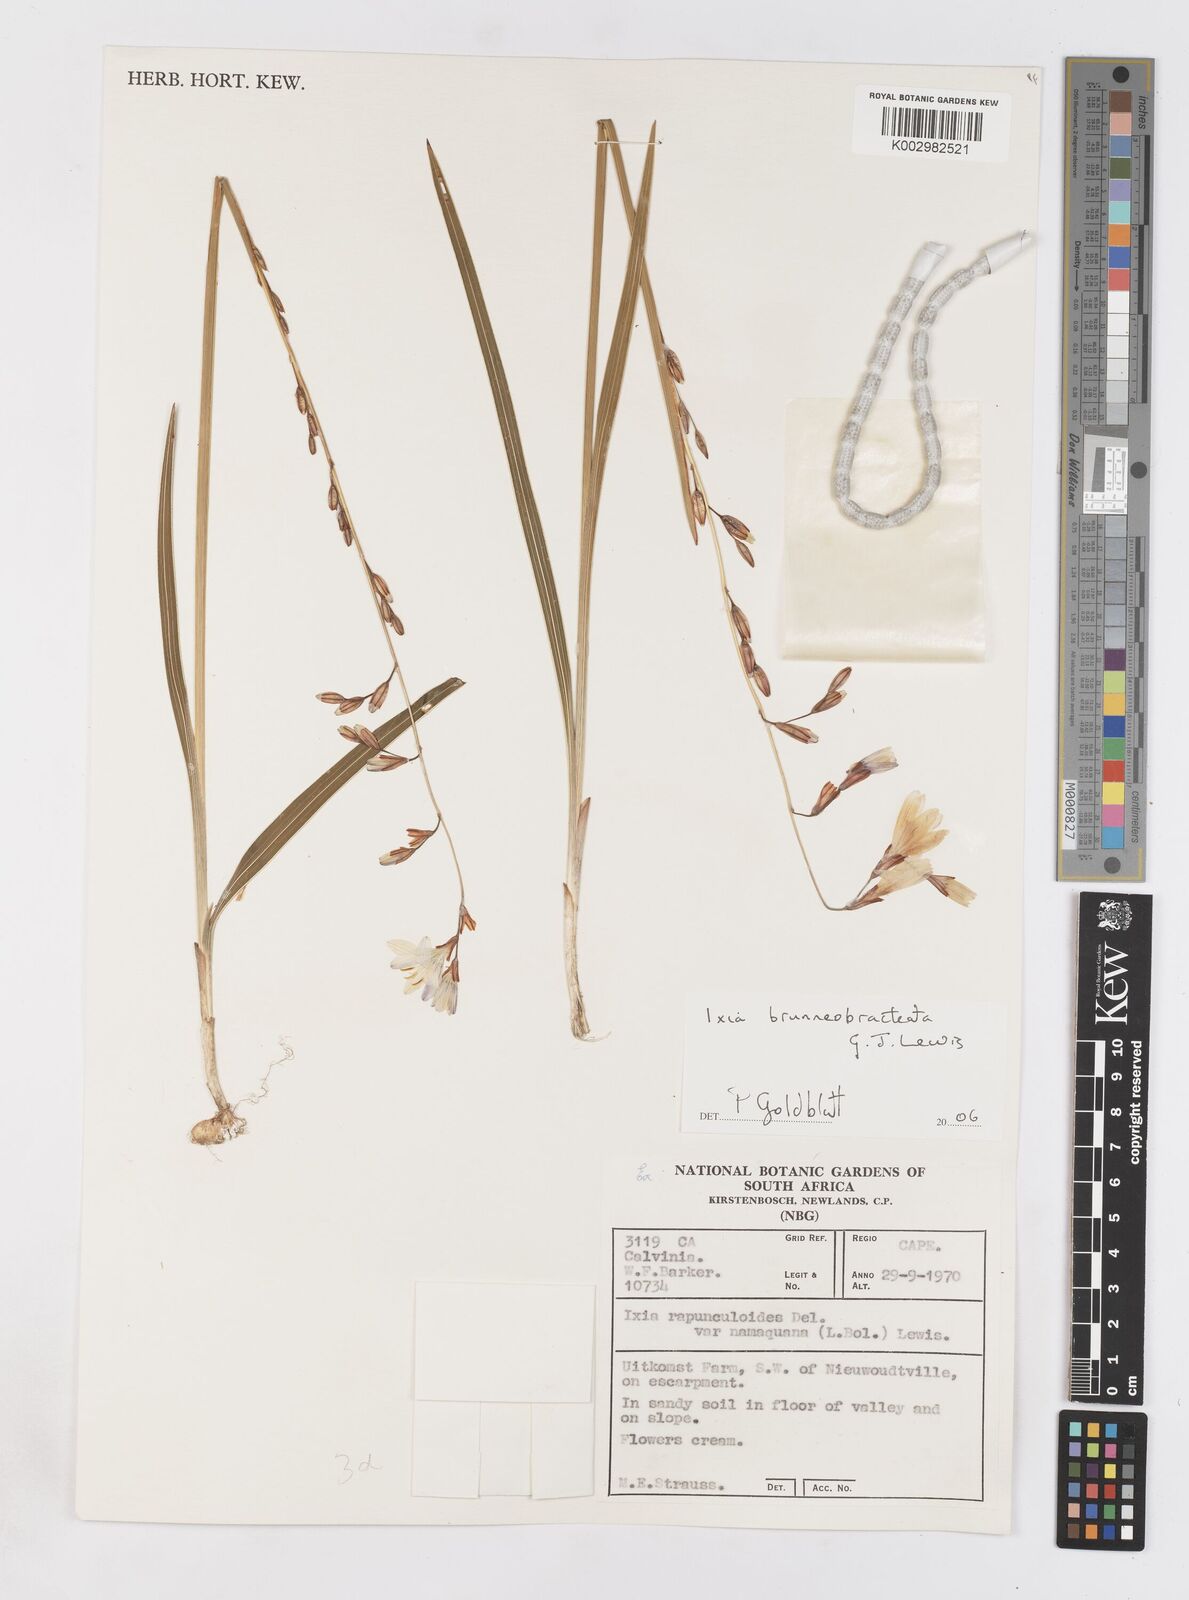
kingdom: Plantae
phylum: Tracheophyta
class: Liliopsida
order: Asparagales
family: Iridaceae
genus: Ixia
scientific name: Ixia brunneobractea
